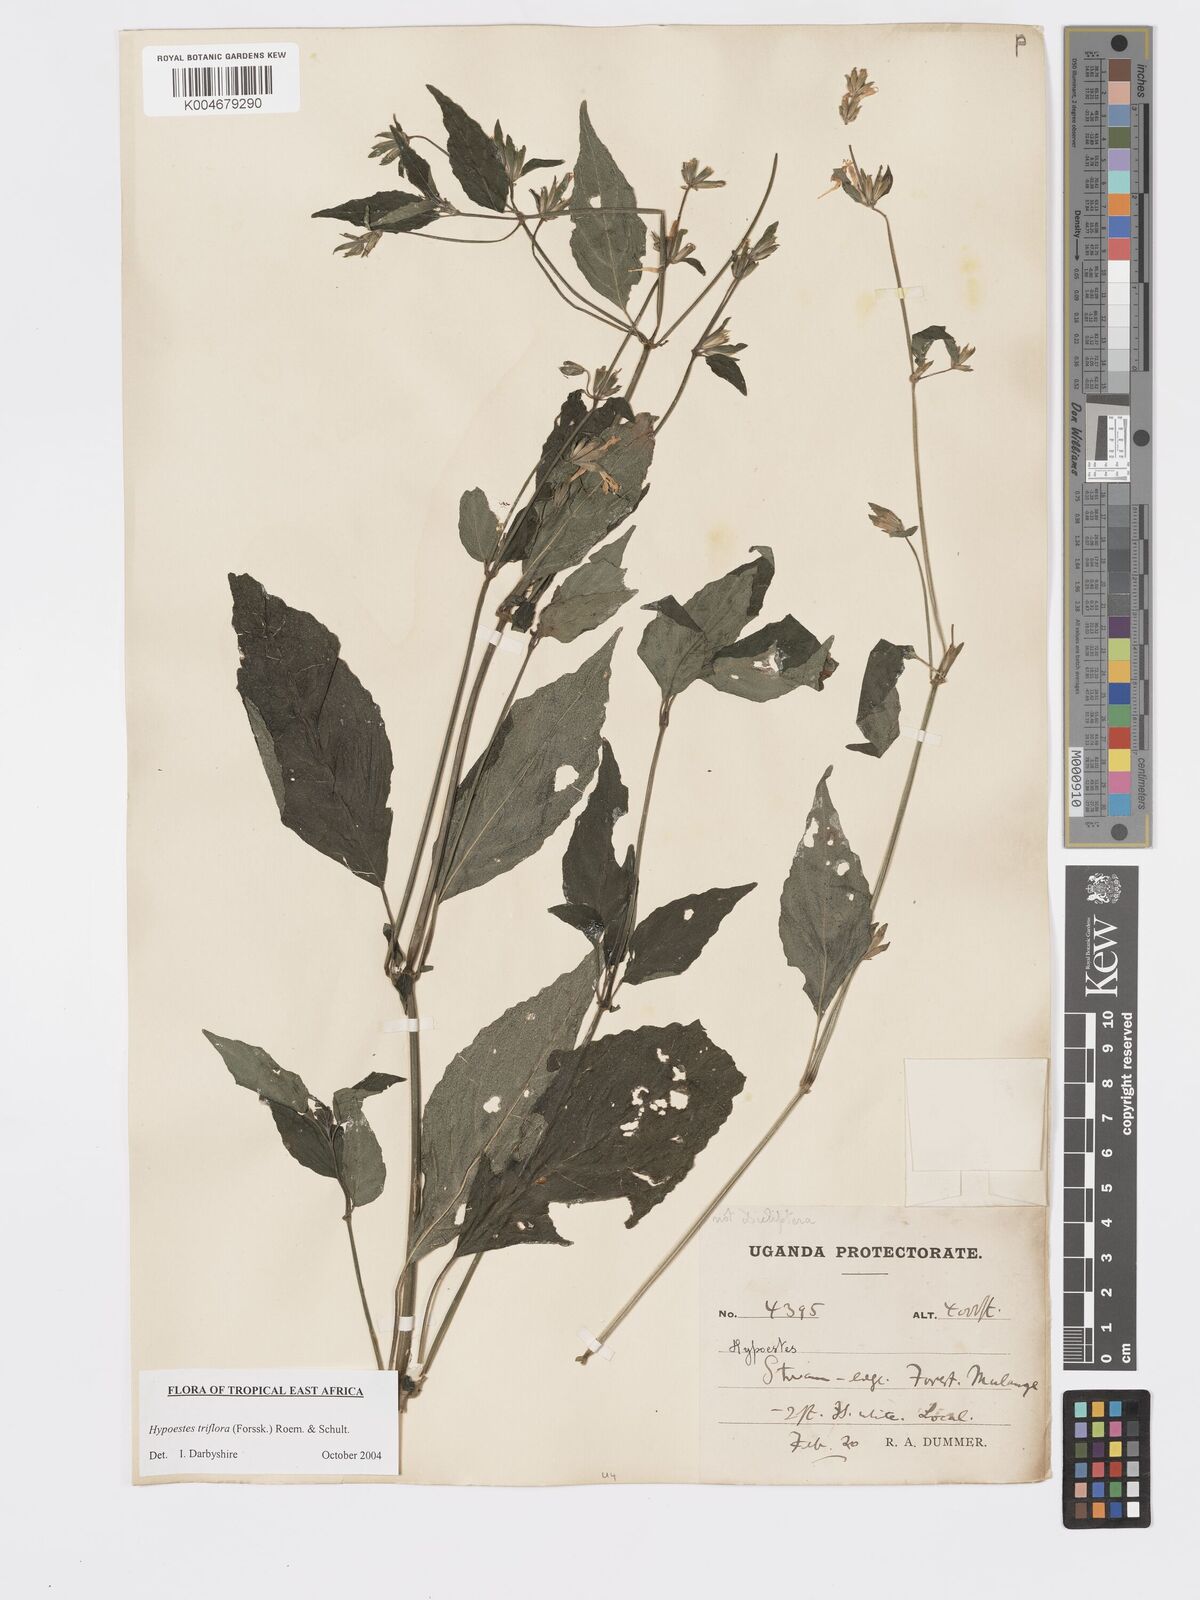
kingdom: Plantae
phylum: Tracheophyta
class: Magnoliopsida
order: Lamiales
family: Acanthaceae
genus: Hypoestes
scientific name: Hypoestes triflora
